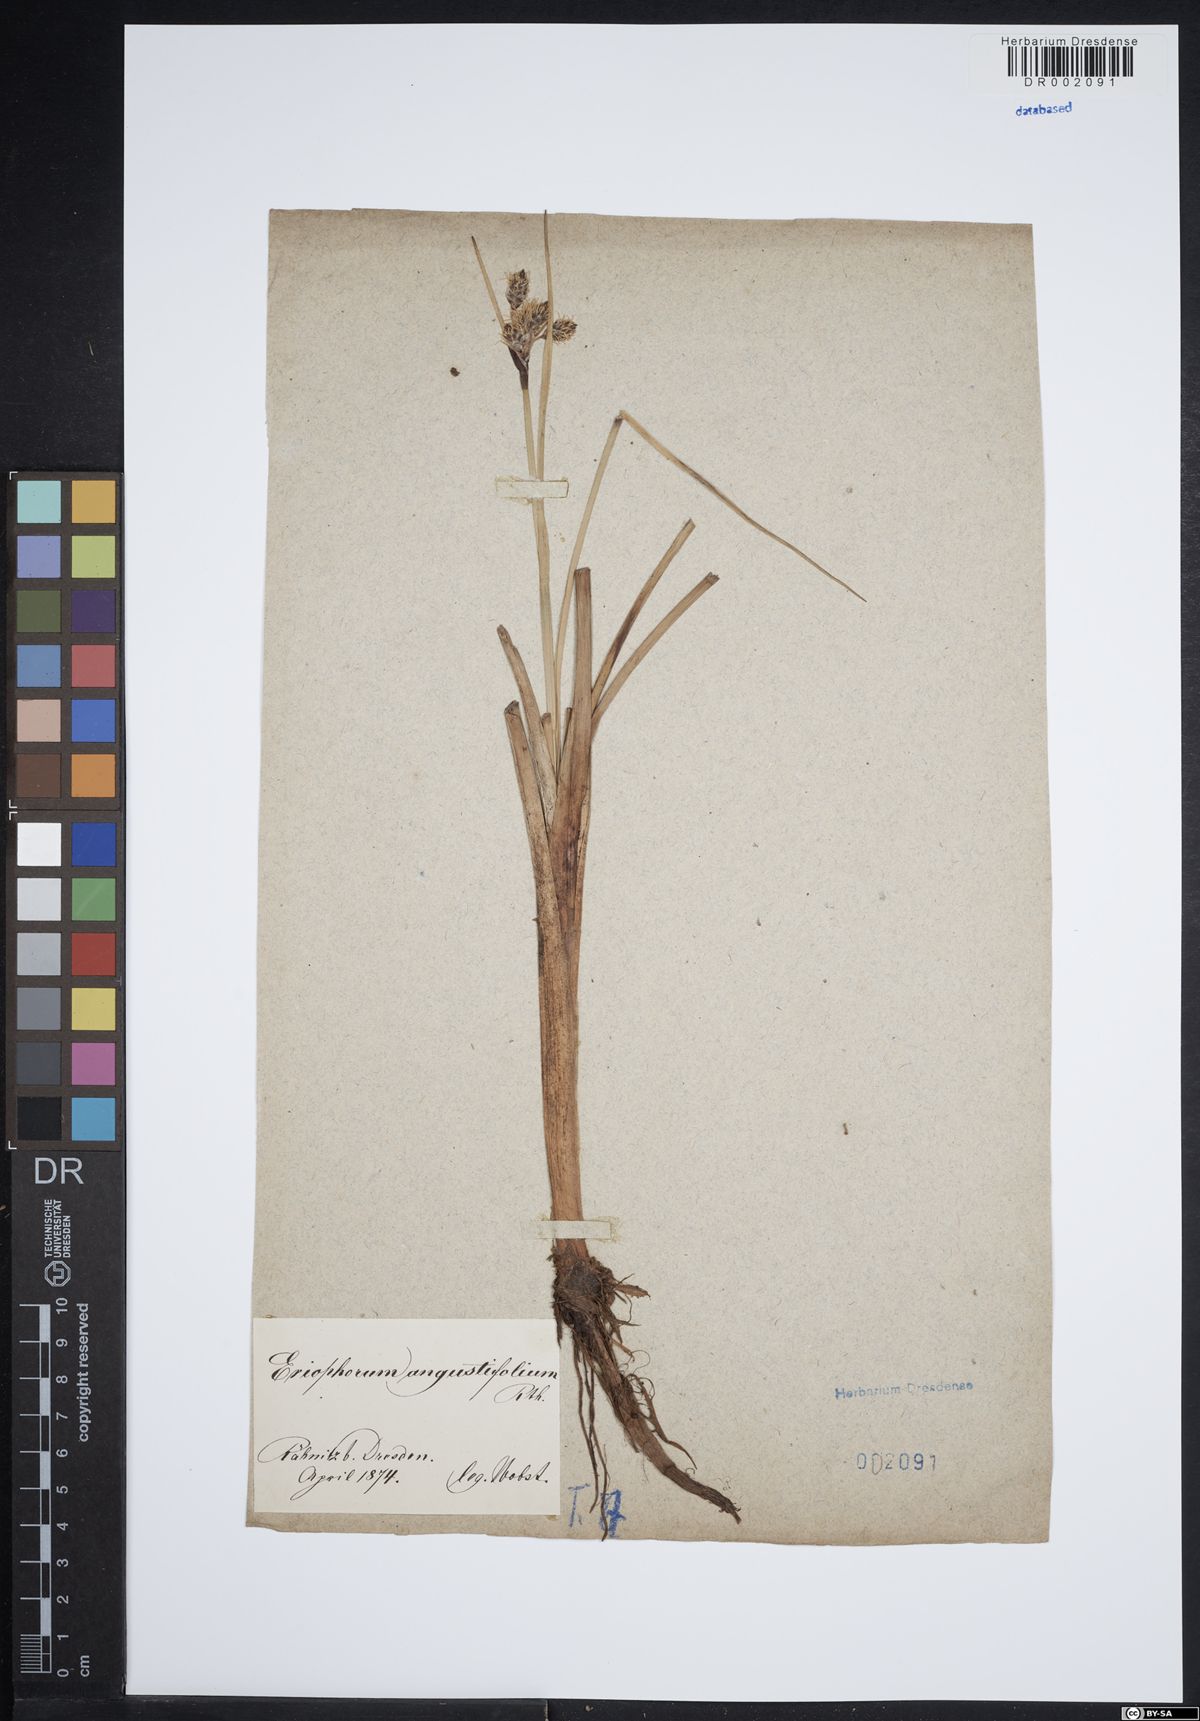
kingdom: Plantae
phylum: Tracheophyta
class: Liliopsida
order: Poales
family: Cyperaceae
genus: Eriophorum
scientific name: Eriophorum angustifolium
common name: Common cottongrass
